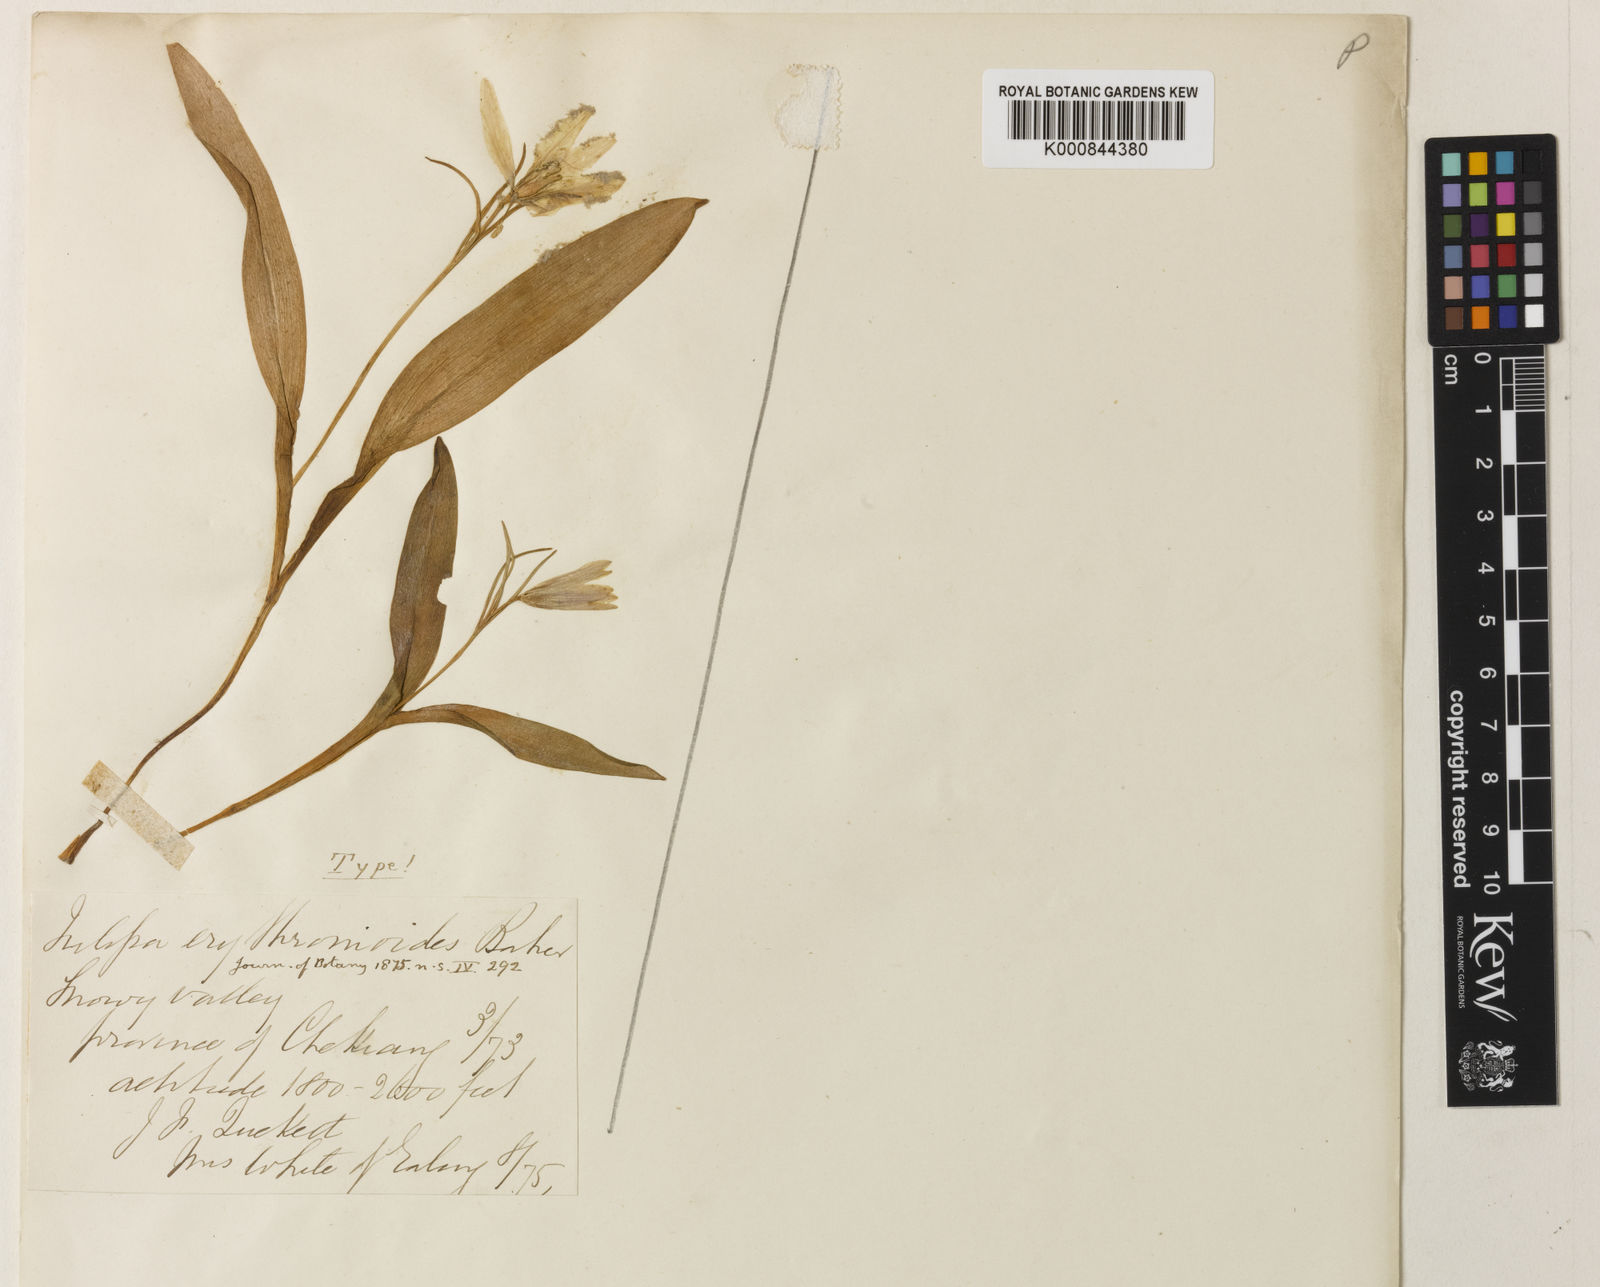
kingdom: Plantae
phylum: Tracheophyta
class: Liliopsida
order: Liliales
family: Liliaceae
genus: Amana
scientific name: Amana erythronioides
